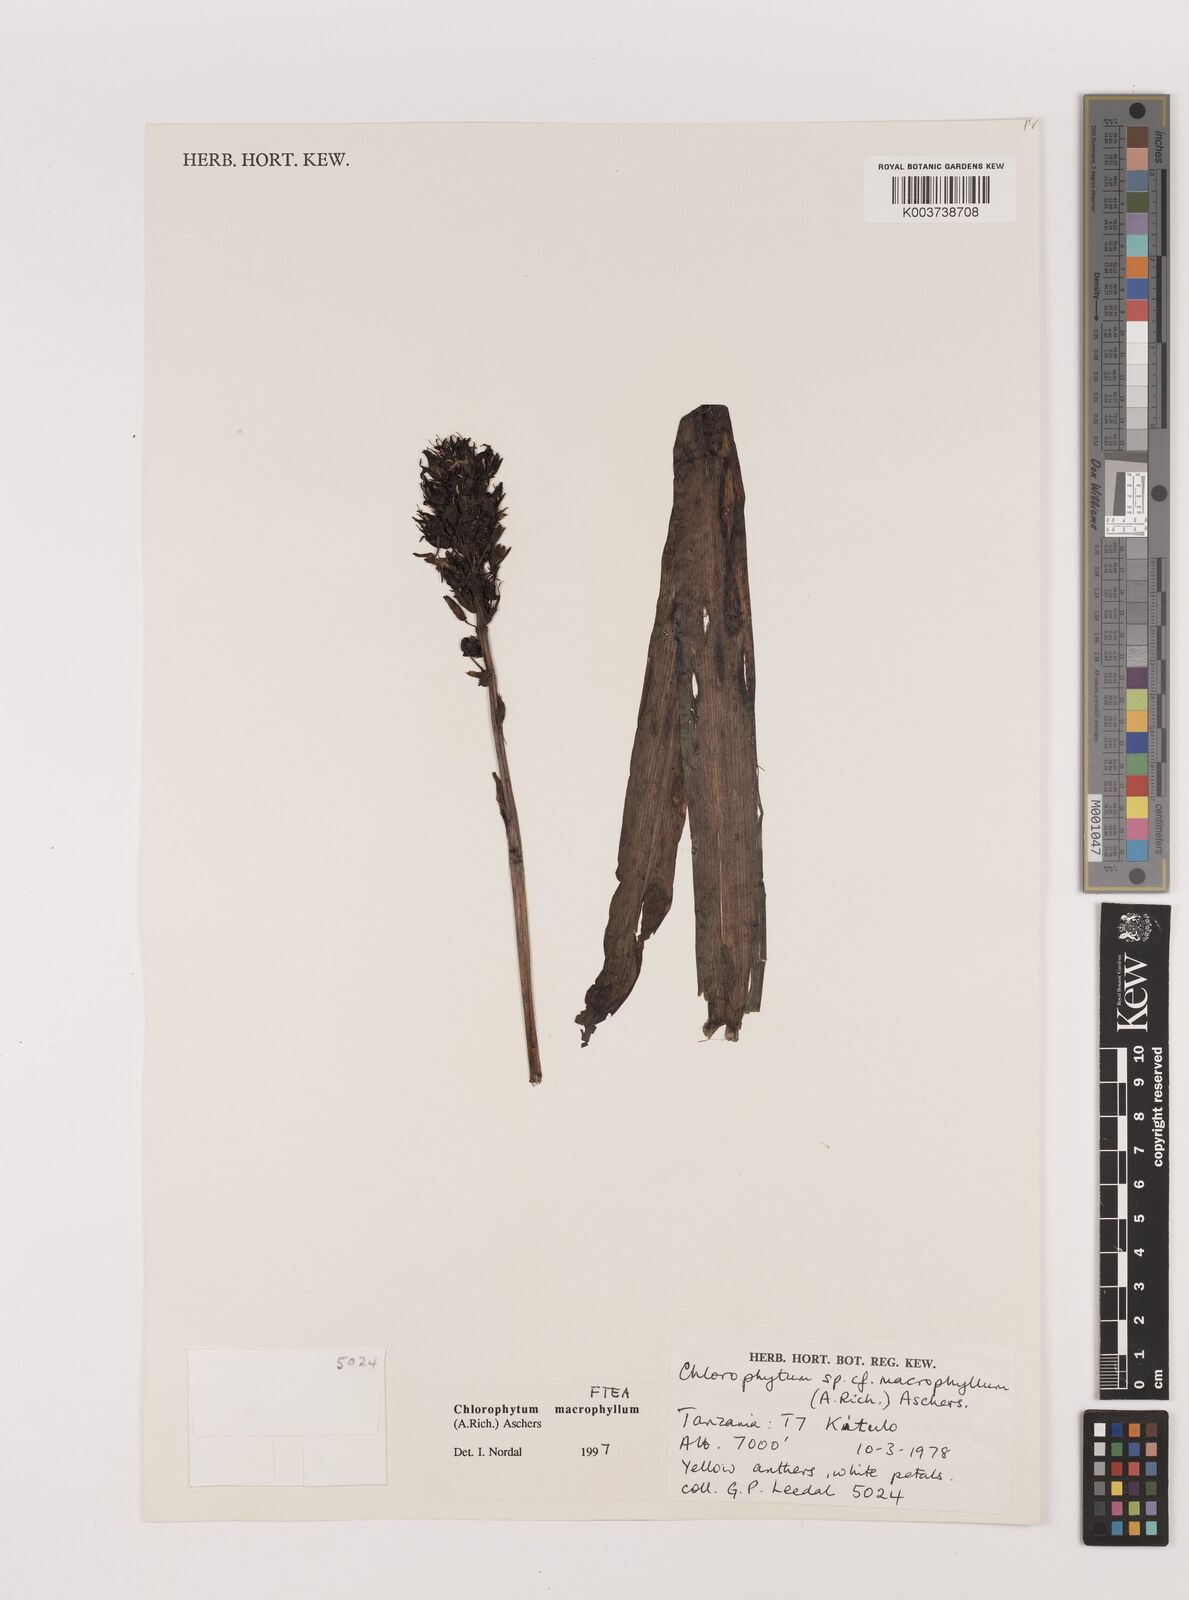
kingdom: Plantae
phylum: Tracheophyta
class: Liliopsida
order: Asparagales
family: Asparagaceae
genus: Chlorophytum
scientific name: Chlorophytum macrophyllum
